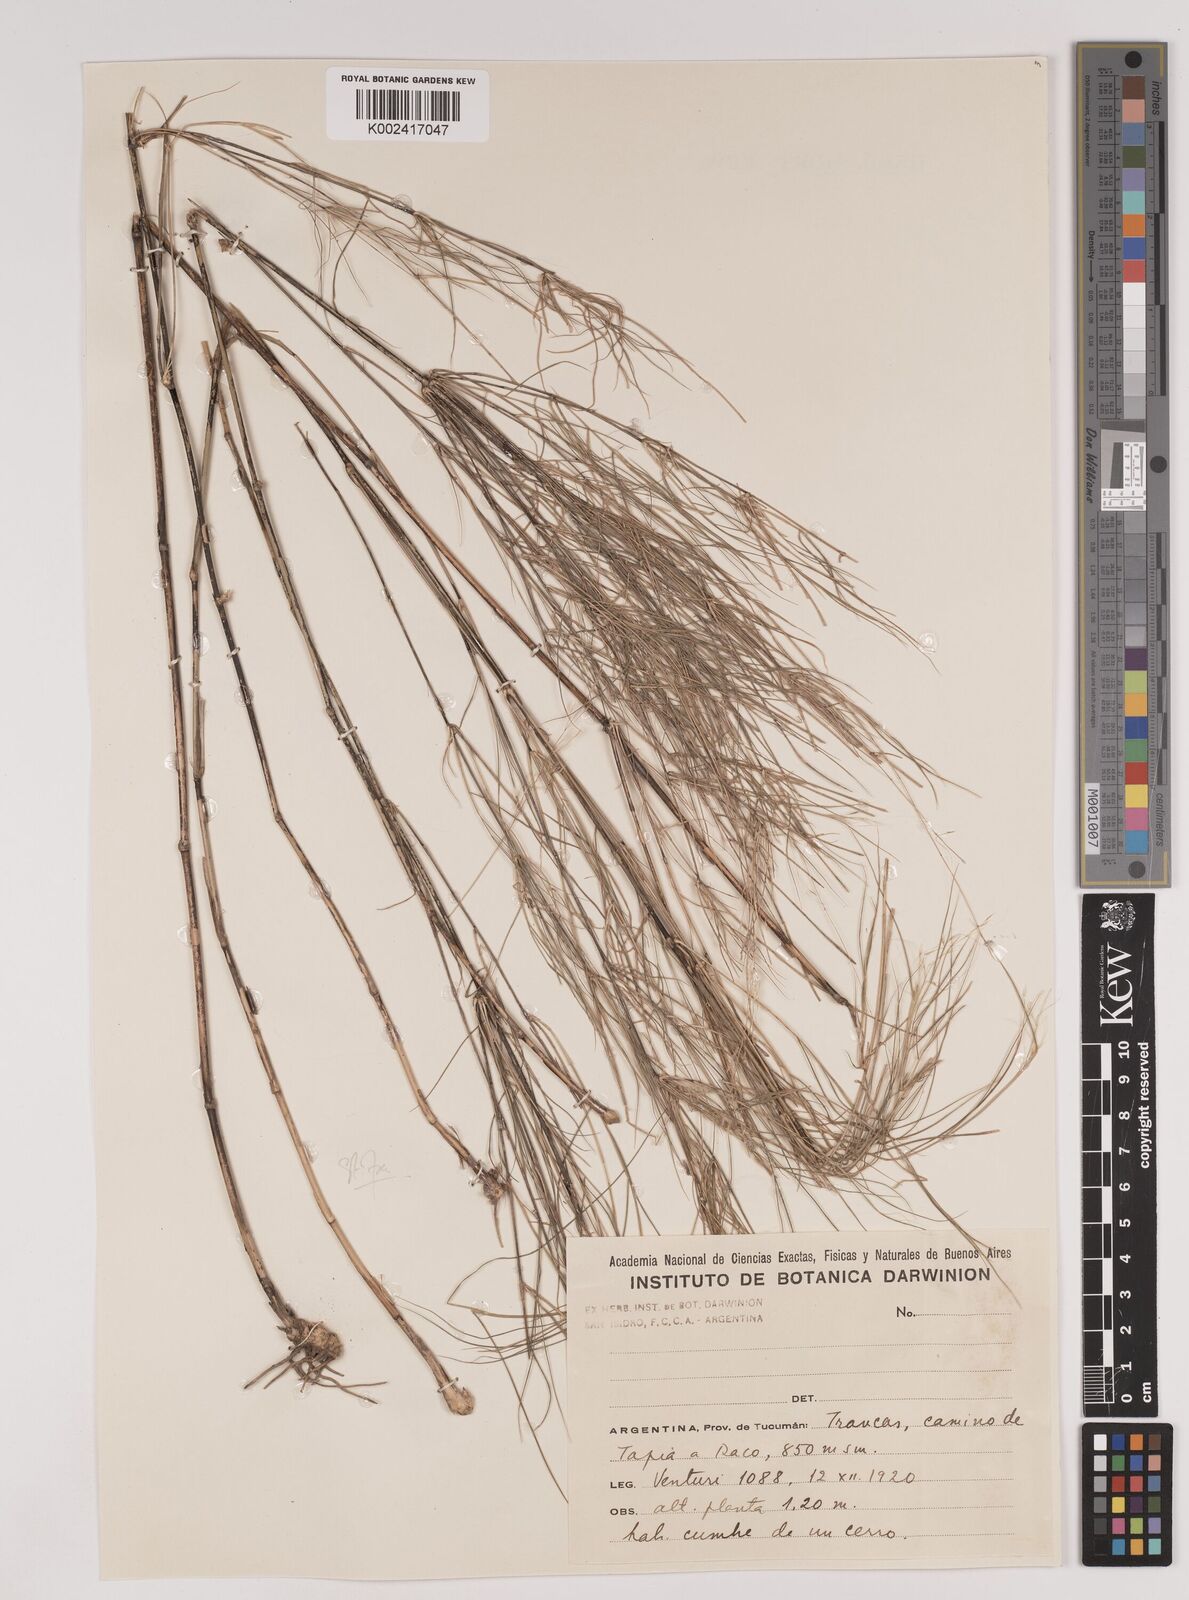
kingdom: Plantae
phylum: Tracheophyta
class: Liliopsida
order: Poales
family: Poaceae
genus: Stipa
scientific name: Stipa polyclada
